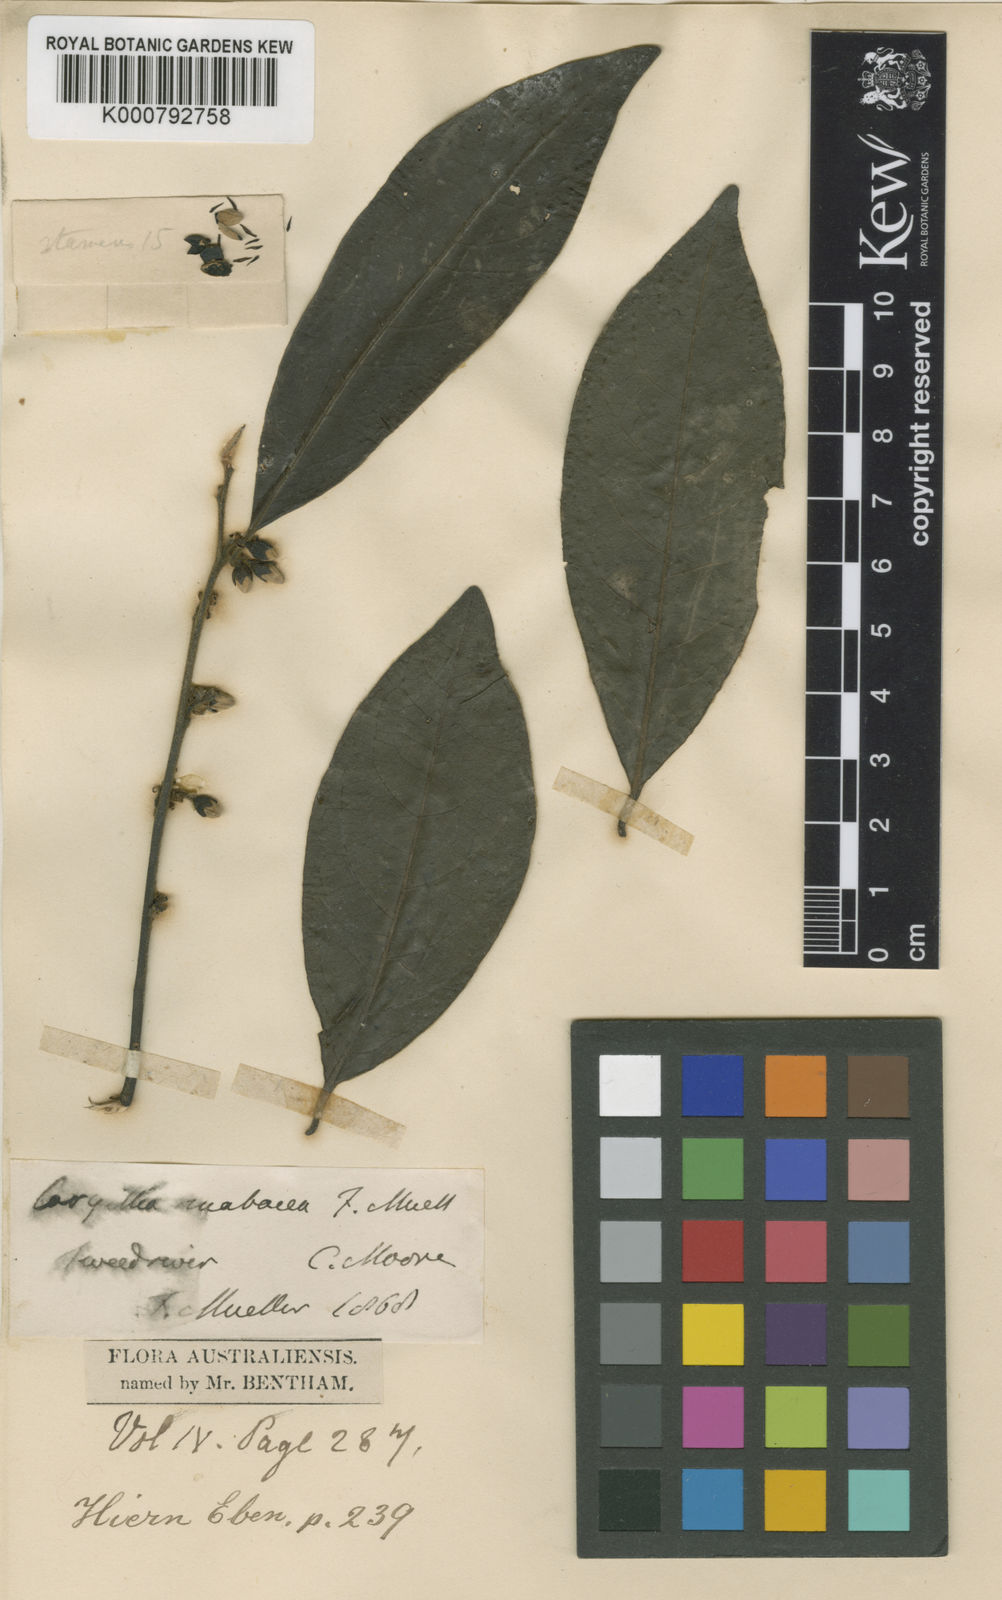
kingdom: Plantae
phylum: Tracheophyta
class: Magnoliopsida
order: Ericales
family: Ebenaceae
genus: Diospyros
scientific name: Diospyros mabacea
